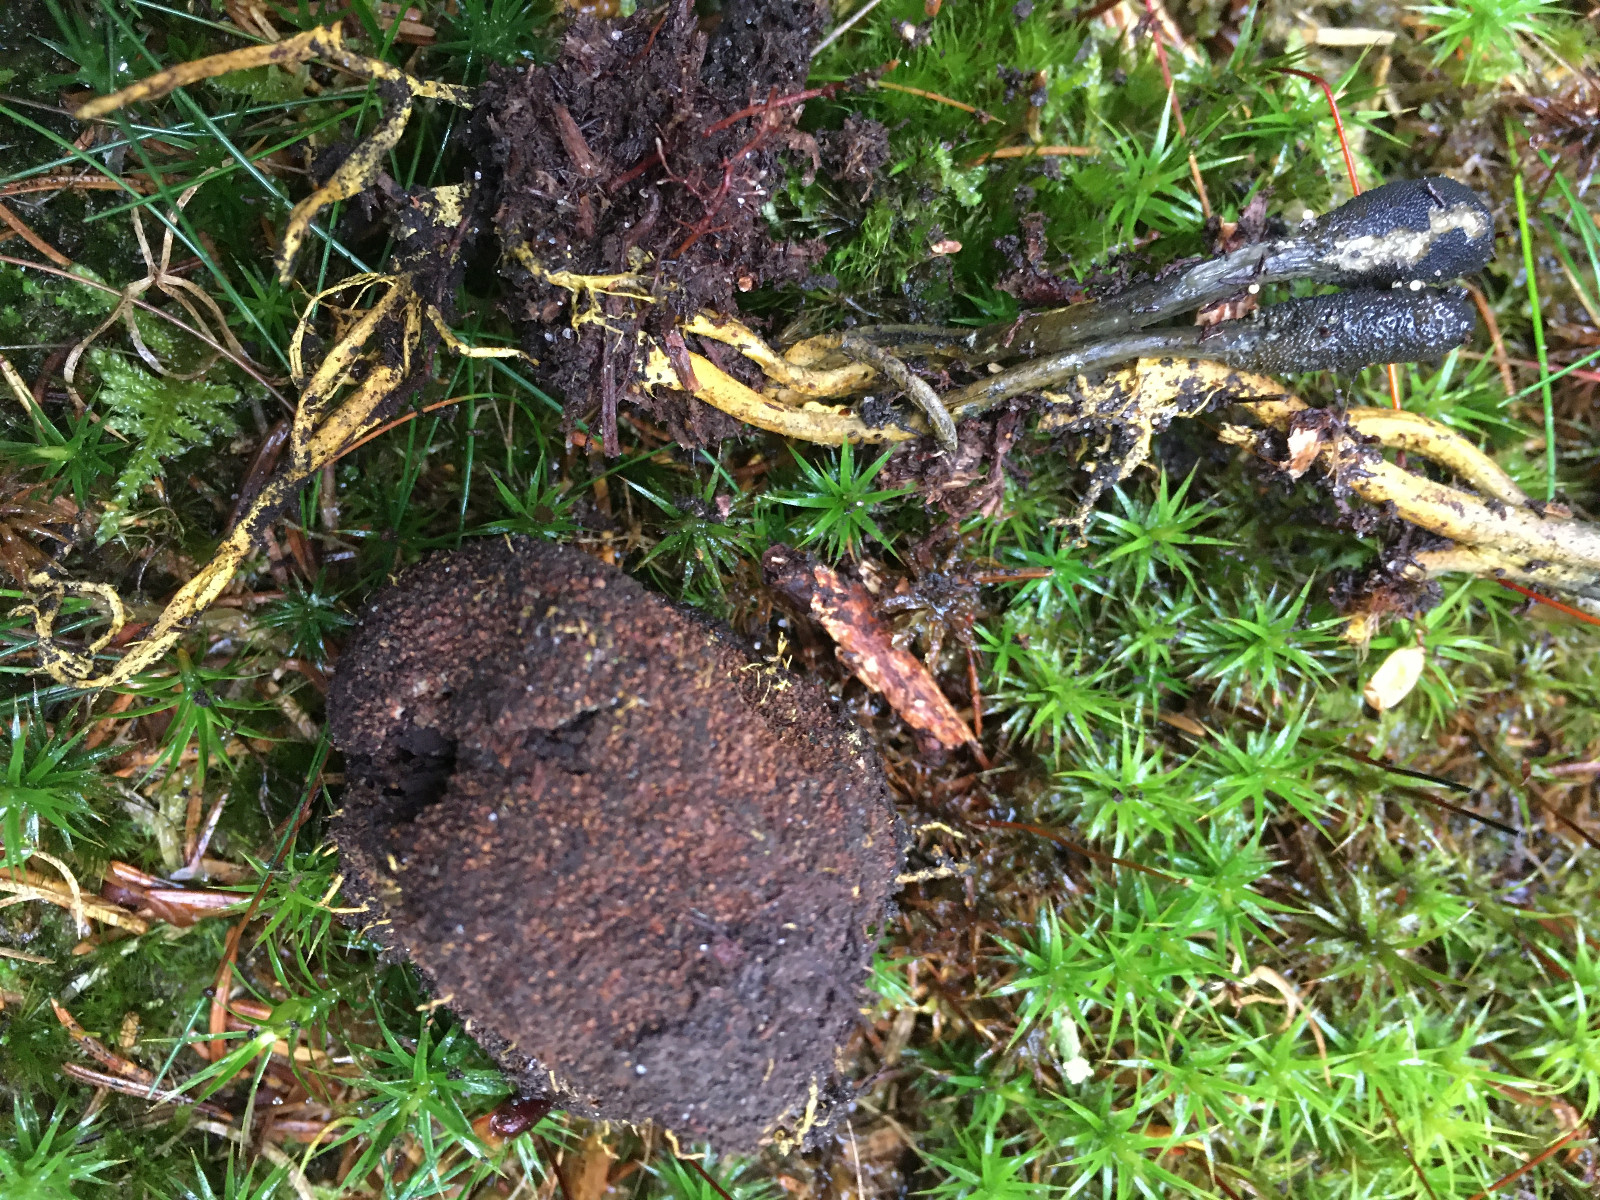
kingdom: Fungi
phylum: Ascomycota
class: Eurotiomycetes
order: Eurotiales
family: Elaphomycetaceae
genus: Elaphomyces
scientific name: Elaphomyces muricatus
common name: vortet hjortetrøffel
